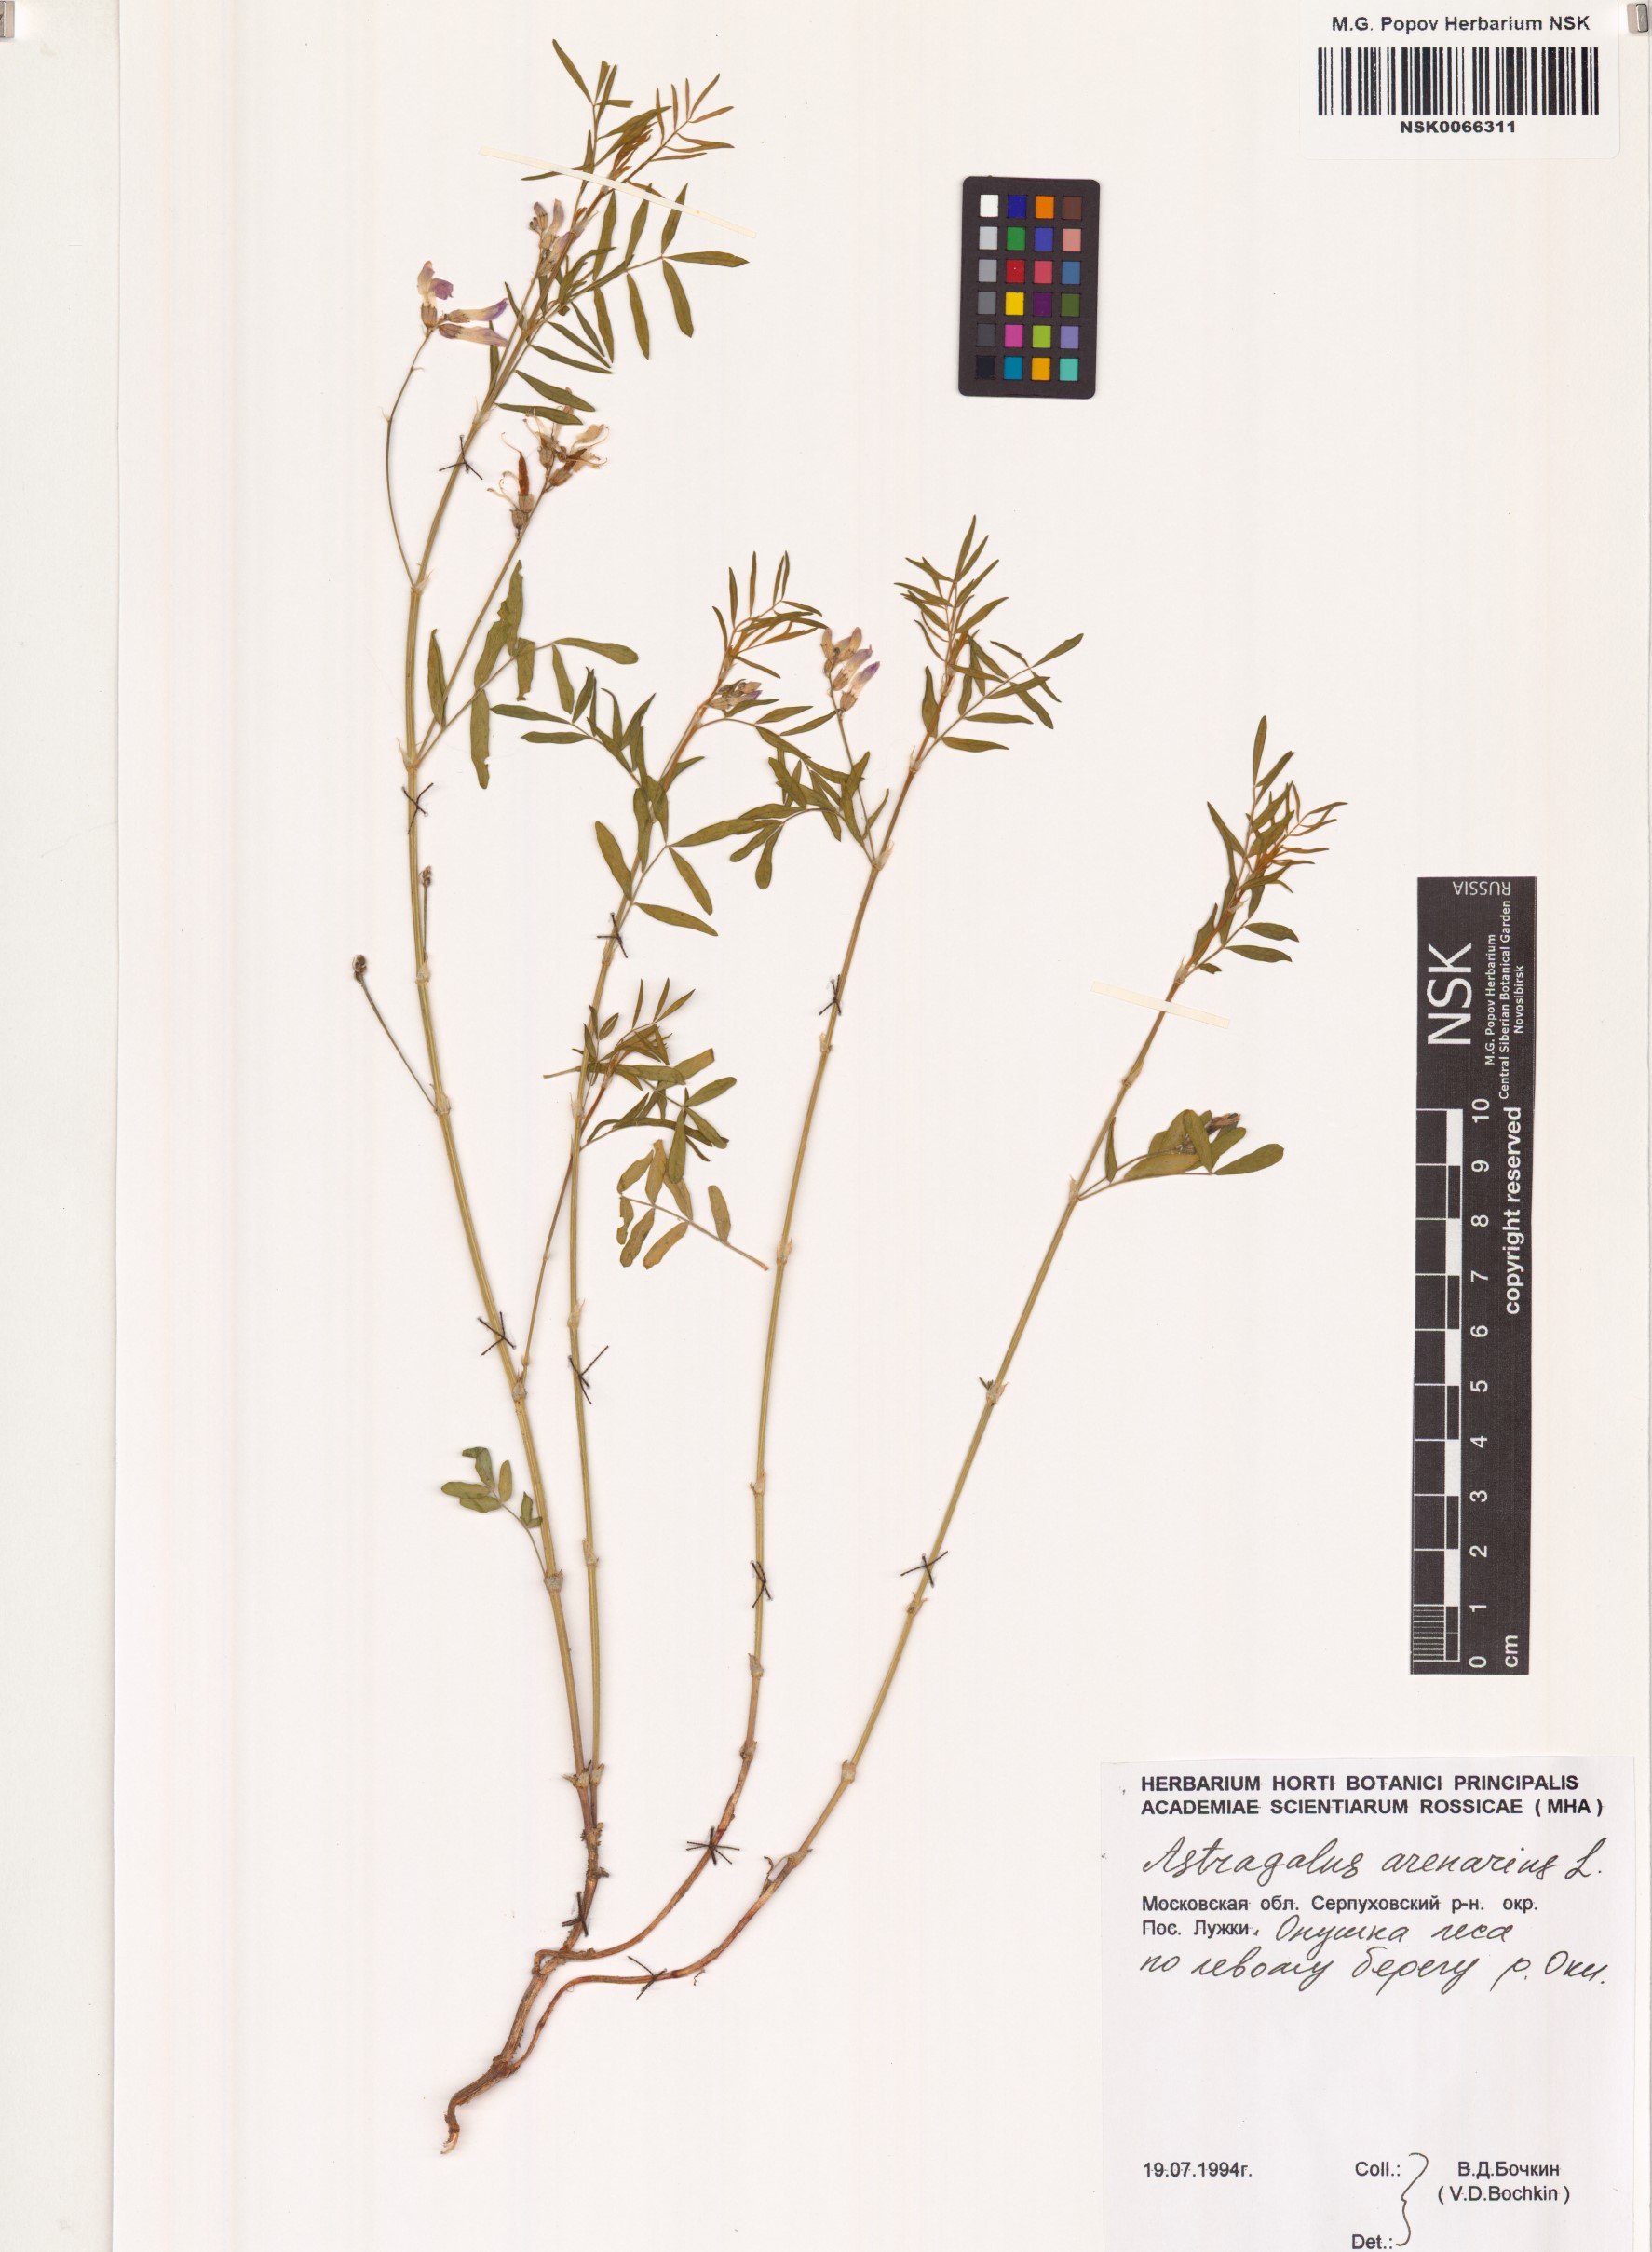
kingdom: Plantae
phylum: Tracheophyta
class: Magnoliopsida
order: Fabales
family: Fabaceae
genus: Astragalus
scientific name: Astragalus arenarius
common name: Arenarious milk-vetch
